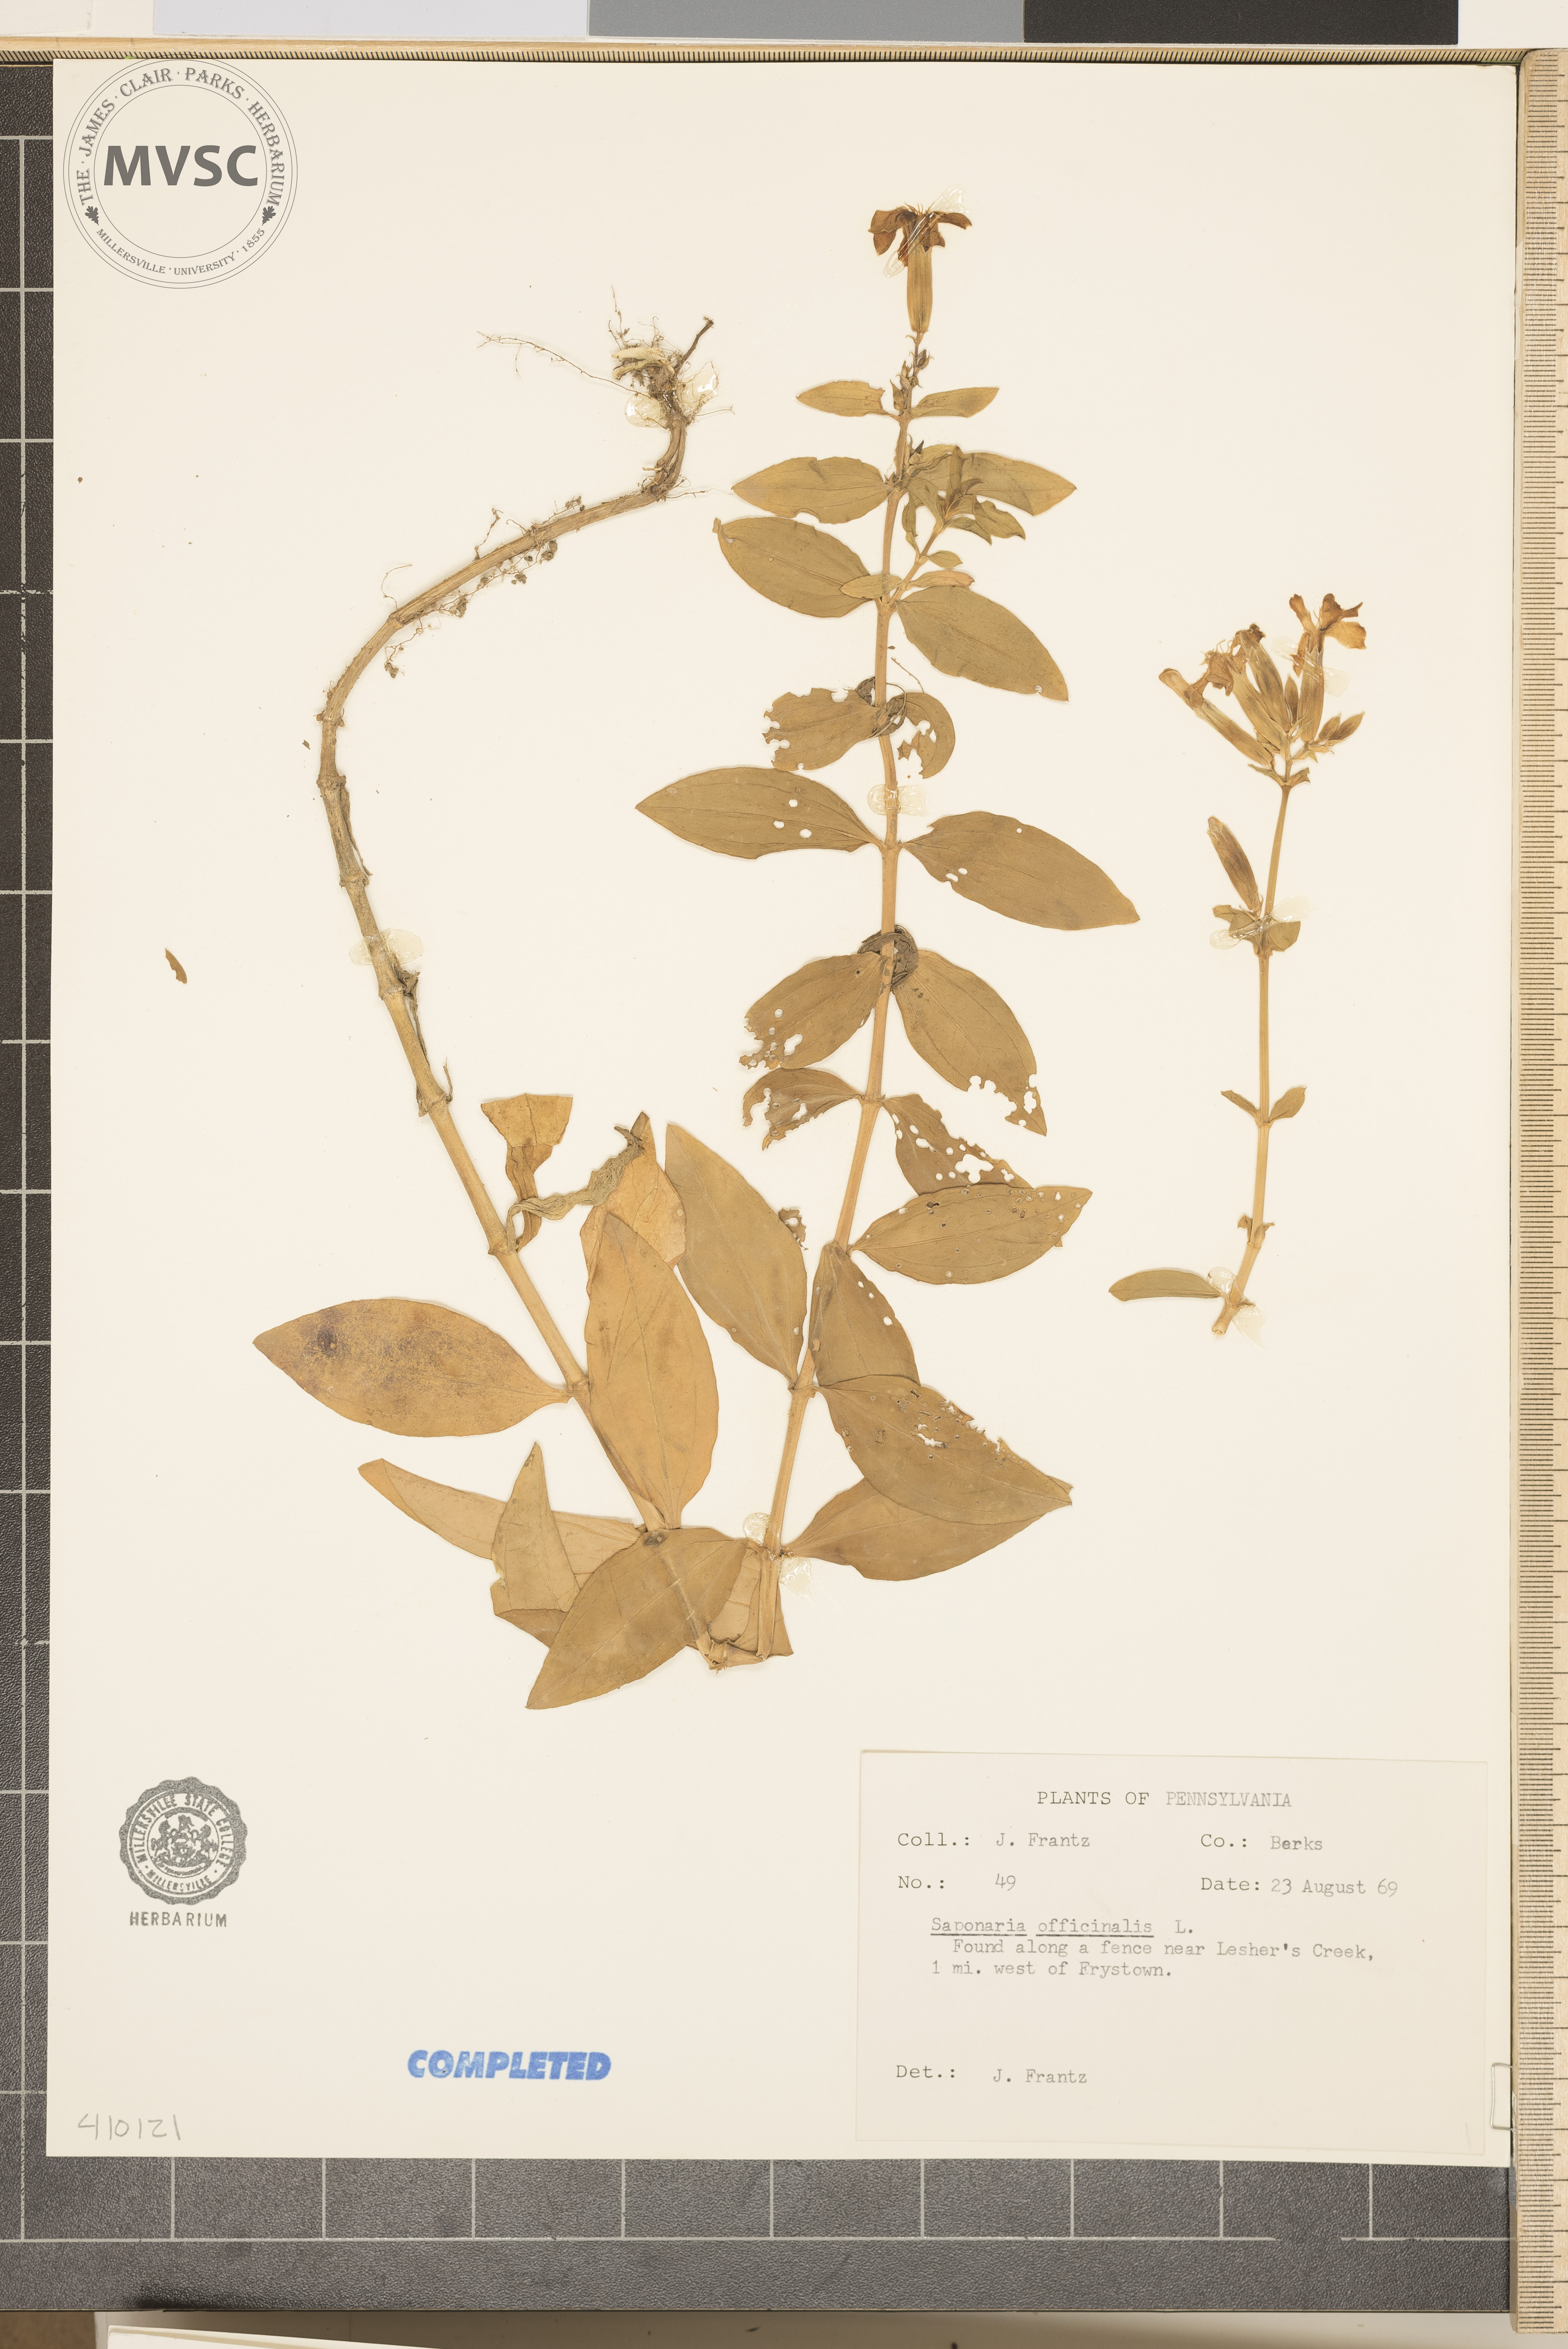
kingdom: Plantae
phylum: Tracheophyta
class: Magnoliopsida
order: Caryophyllales
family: Caryophyllaceae
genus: Saponaria
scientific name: Saponaria officinalis
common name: Soapwort
